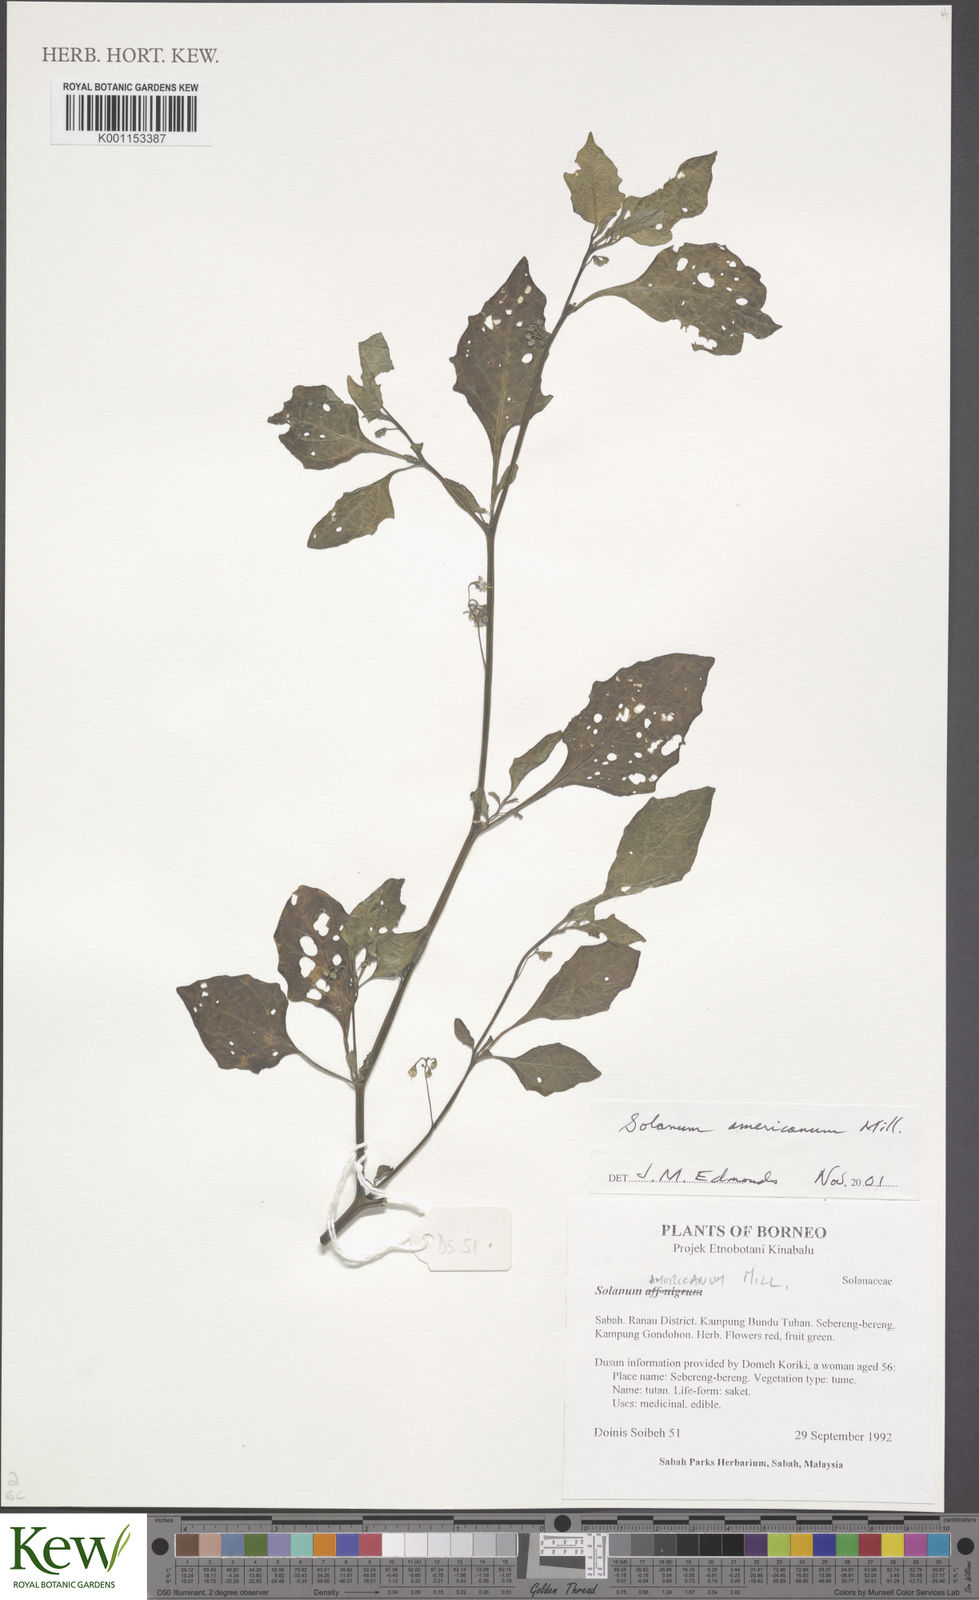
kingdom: Plantae
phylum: Tracheophyta
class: Magnoliopsida
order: Solanales
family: Solanaceae
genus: Solanum
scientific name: Solanum americanum
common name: American black nightshade
